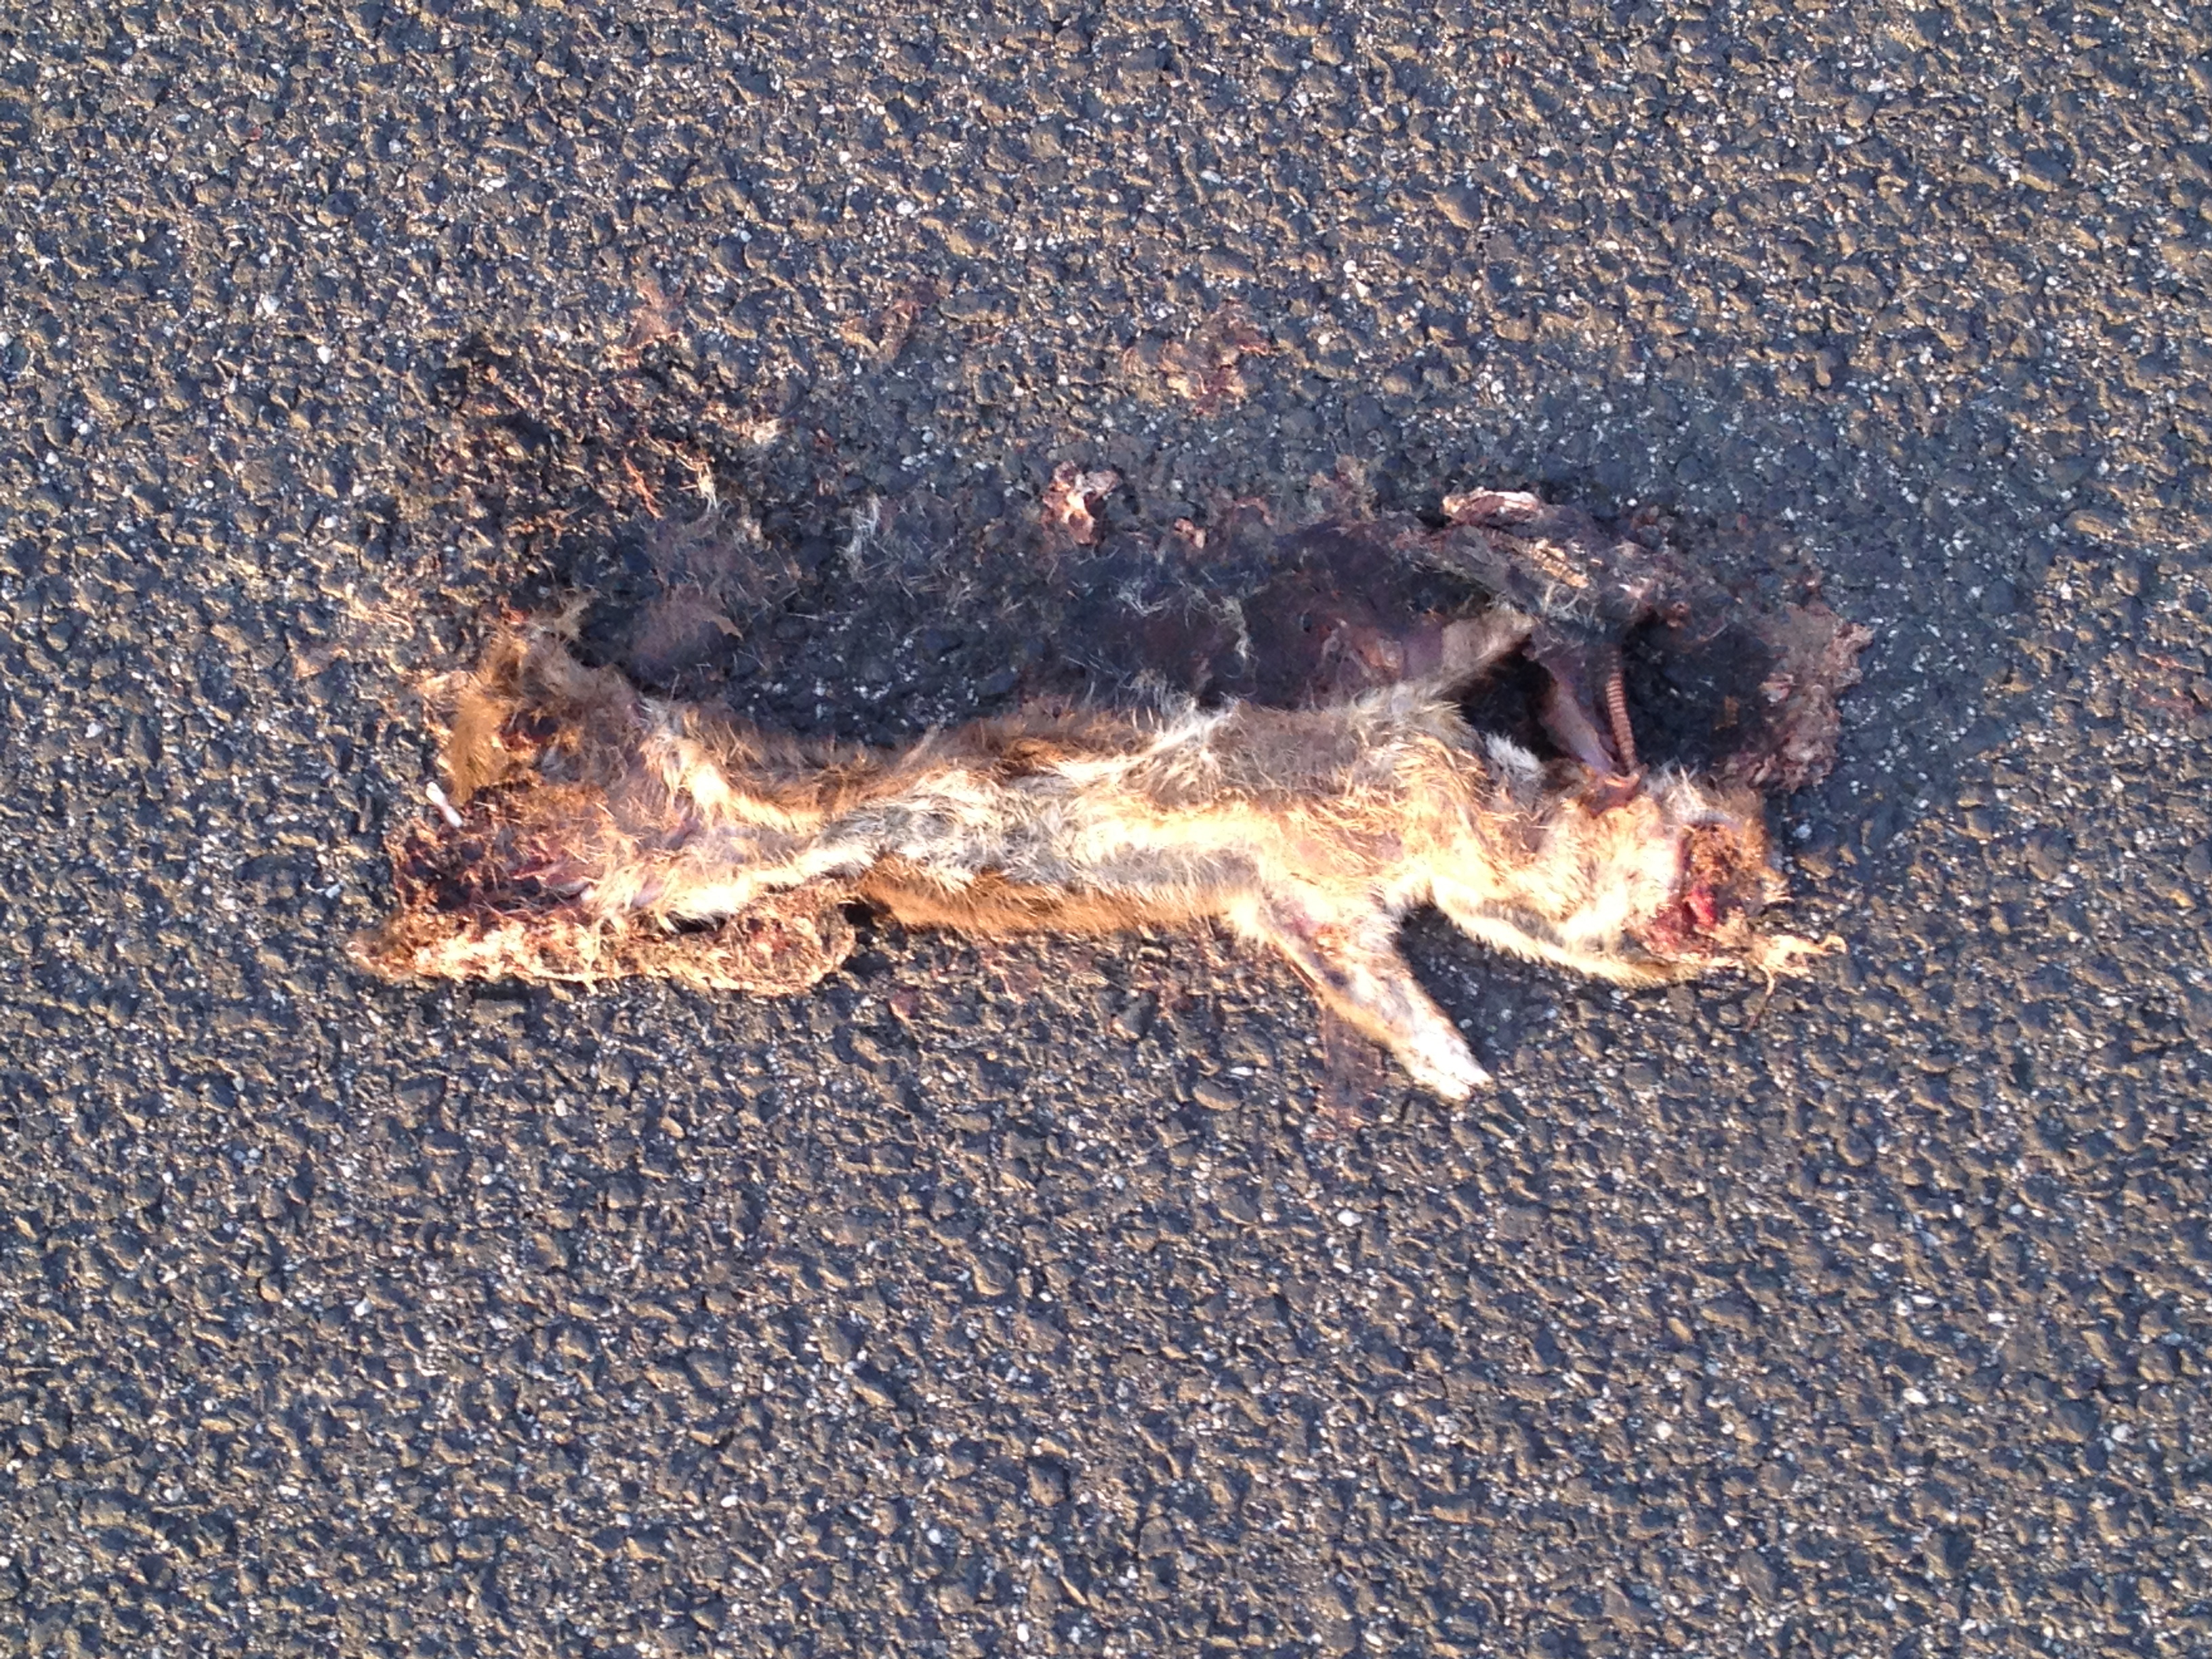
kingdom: Animalia
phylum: Chordata
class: Mammalia
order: Carnivora
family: Mustelidae
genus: Mustela
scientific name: Mustela
